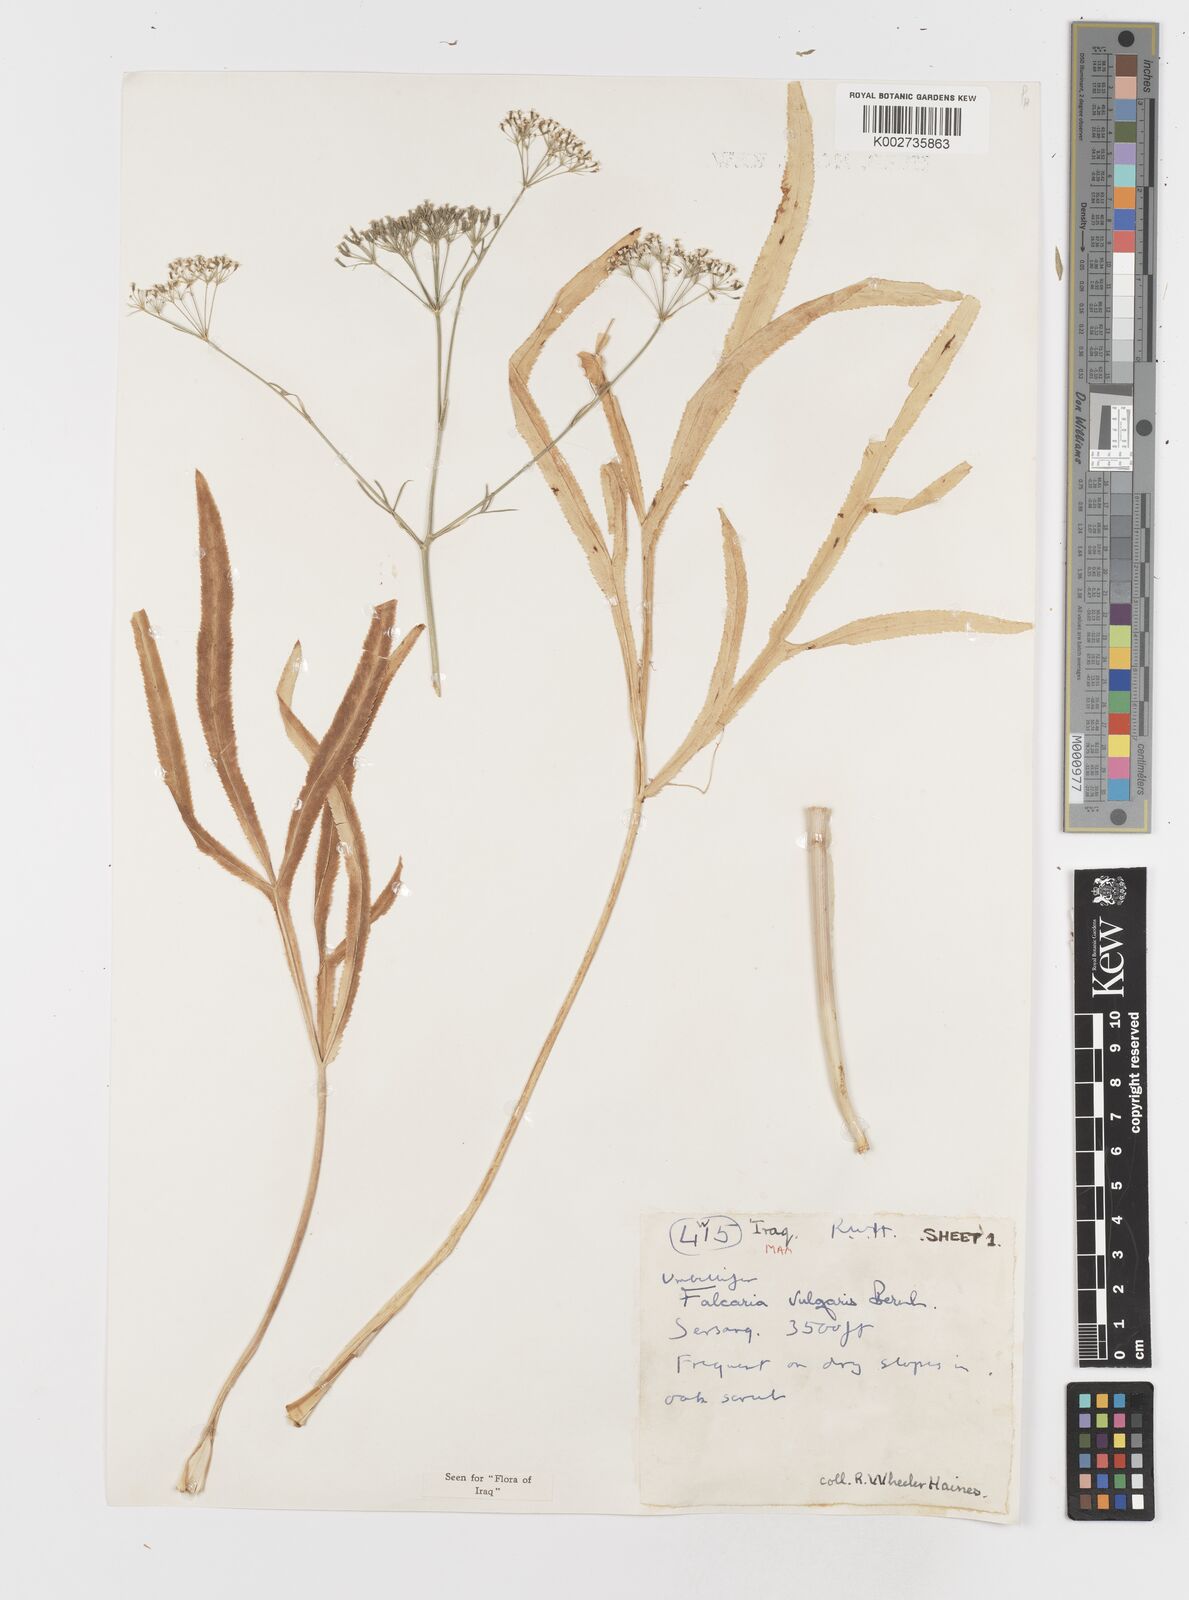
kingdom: Plantae
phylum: Tracheophyta
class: Magnoliopsida
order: Apiales
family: Apiaceae
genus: Falcaria
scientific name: Falcaria vulgaris
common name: Longleaf
